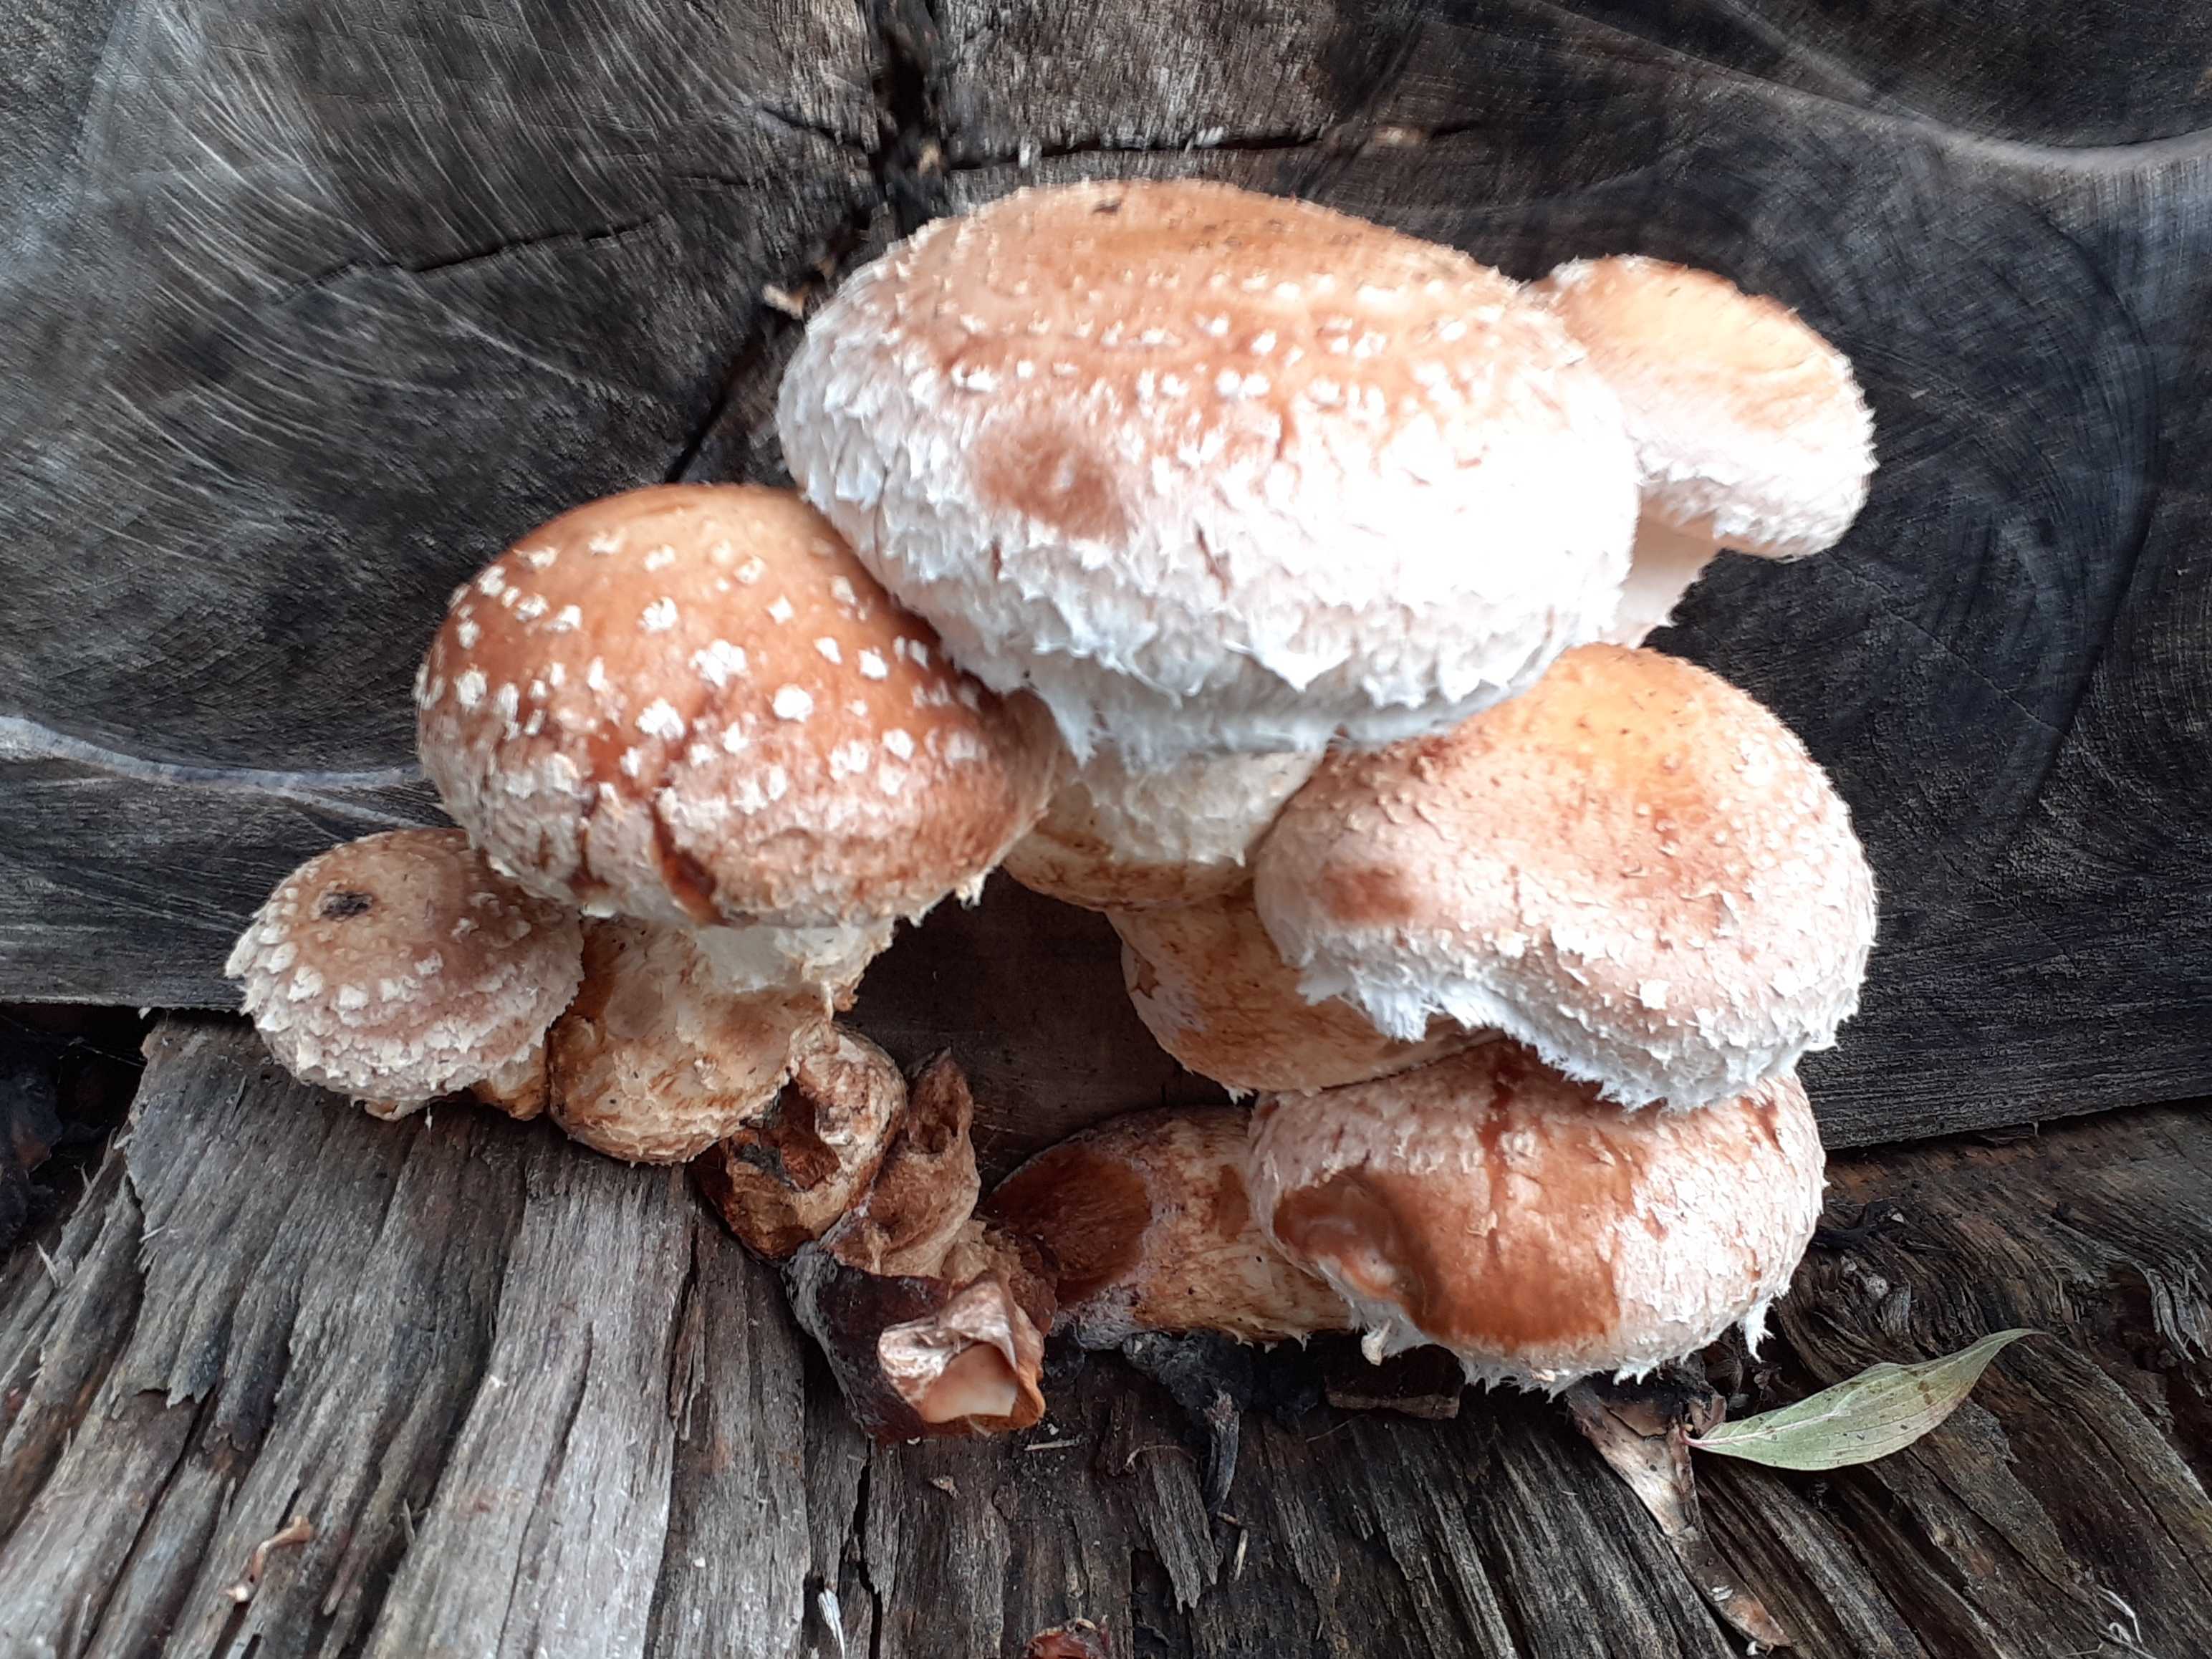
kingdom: Fungi
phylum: Basidiomycota
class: Agaricomycetes
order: Agaricales
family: Strophariaceae
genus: Pholiota
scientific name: Pholiota populnea
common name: poppel-kæmpeskælhat
